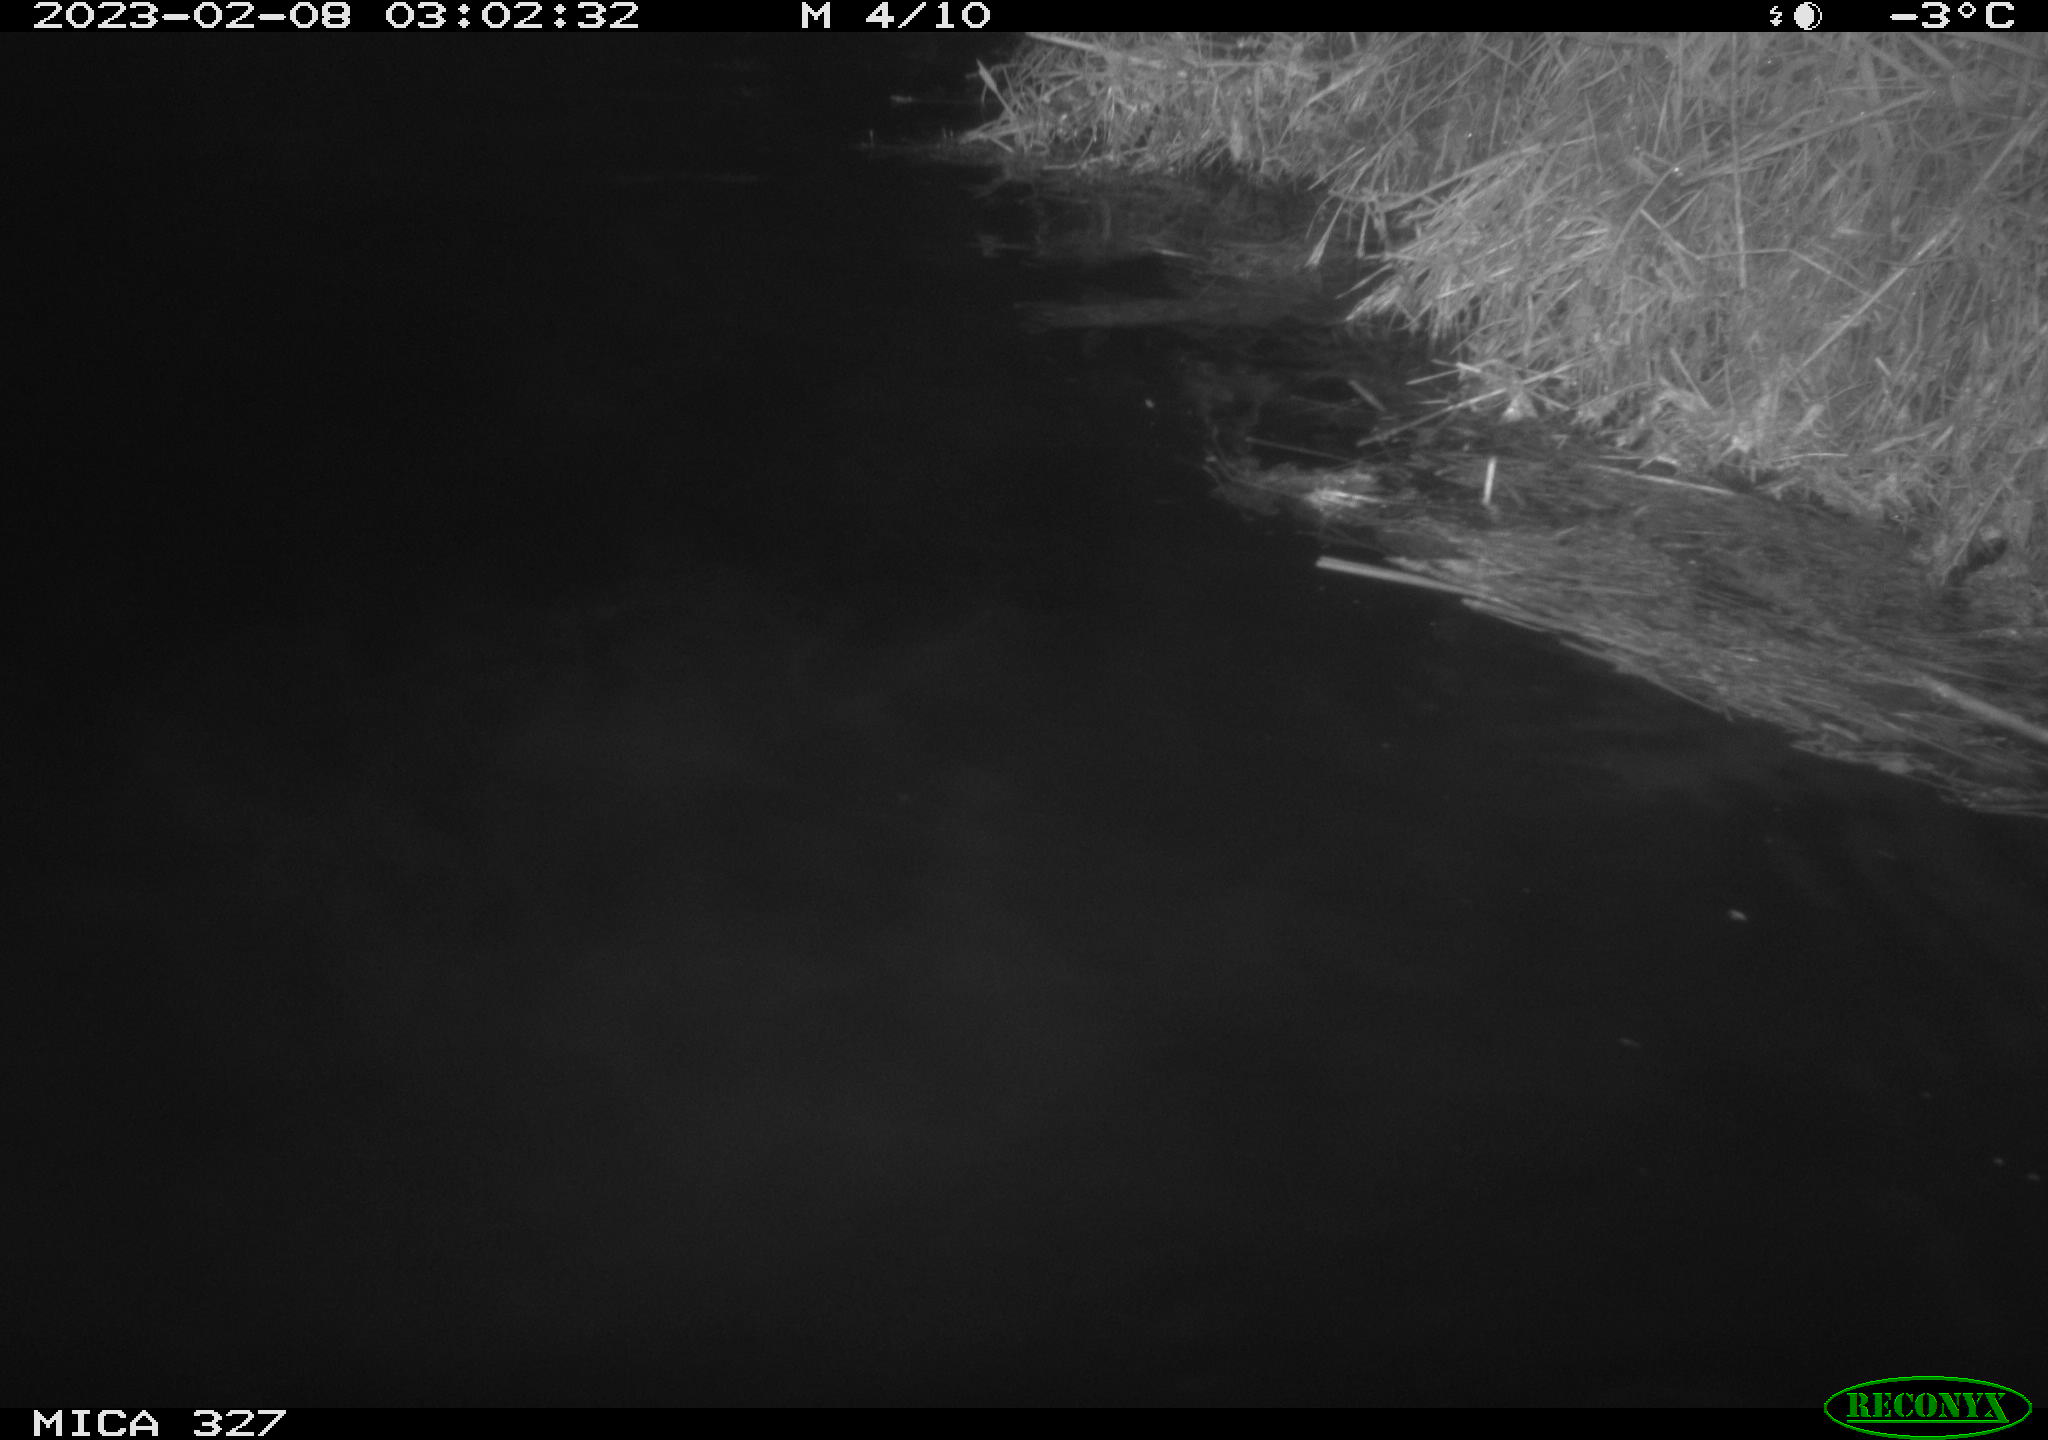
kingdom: Animalia
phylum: Chordata
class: Mammalia
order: Rodentia
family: Cricetidae
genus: Ondatra
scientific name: Ondatra zibethicus
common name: Muskrat
